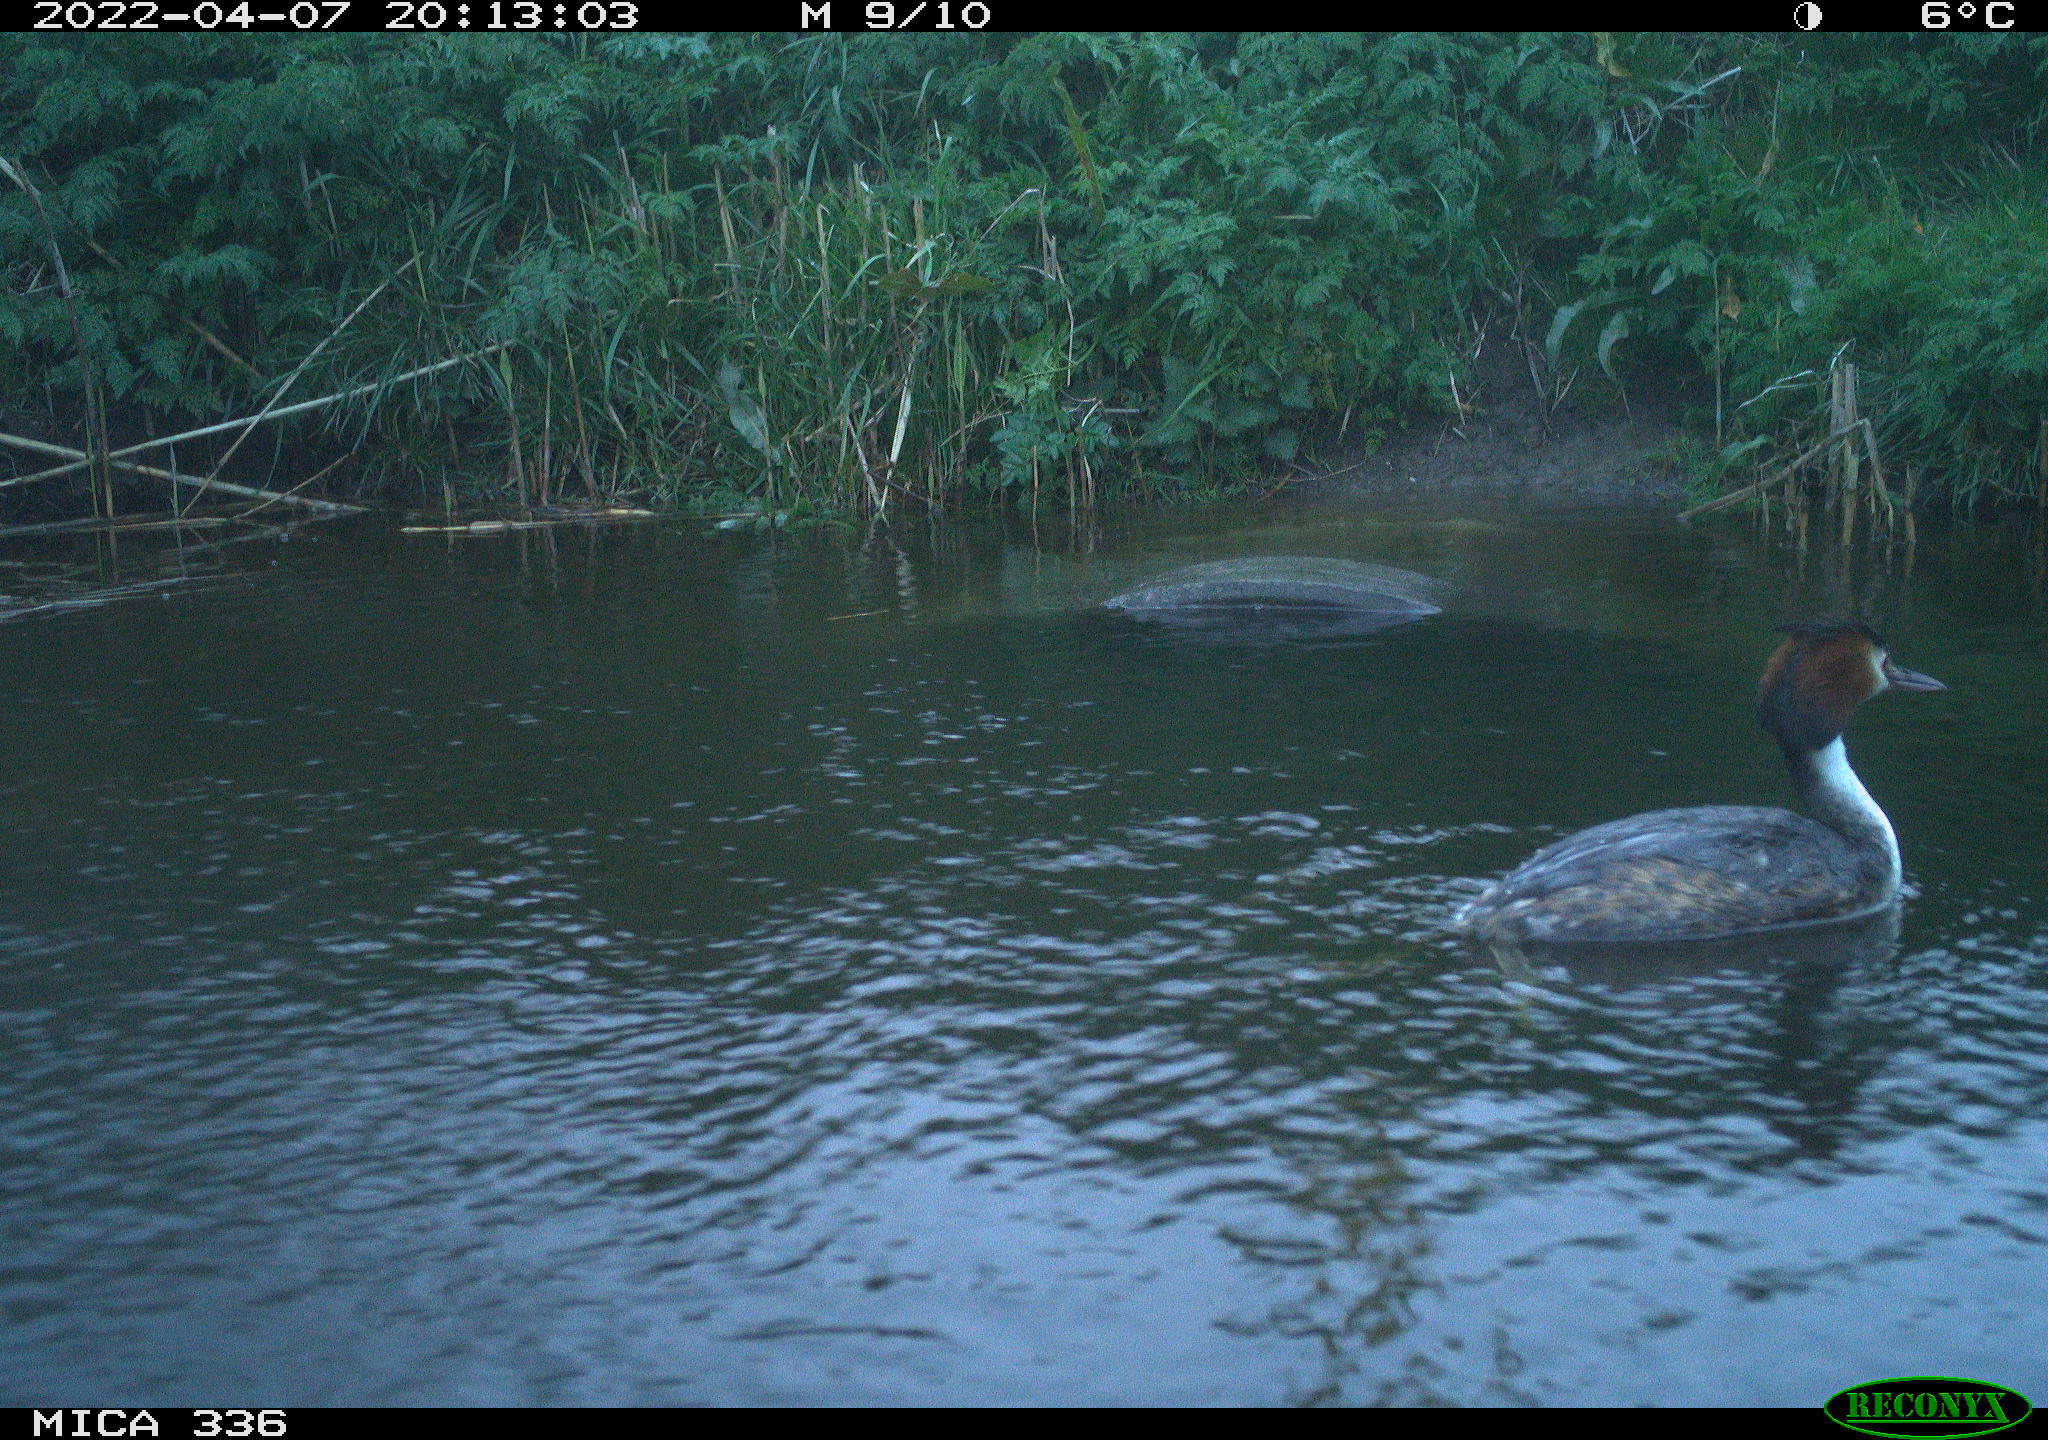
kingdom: Animalia
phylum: Chordata
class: Aves
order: Podicipediformes
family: Podicipedidae
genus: Podiceps
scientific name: Podiceps cristatus
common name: Great crested grebe
